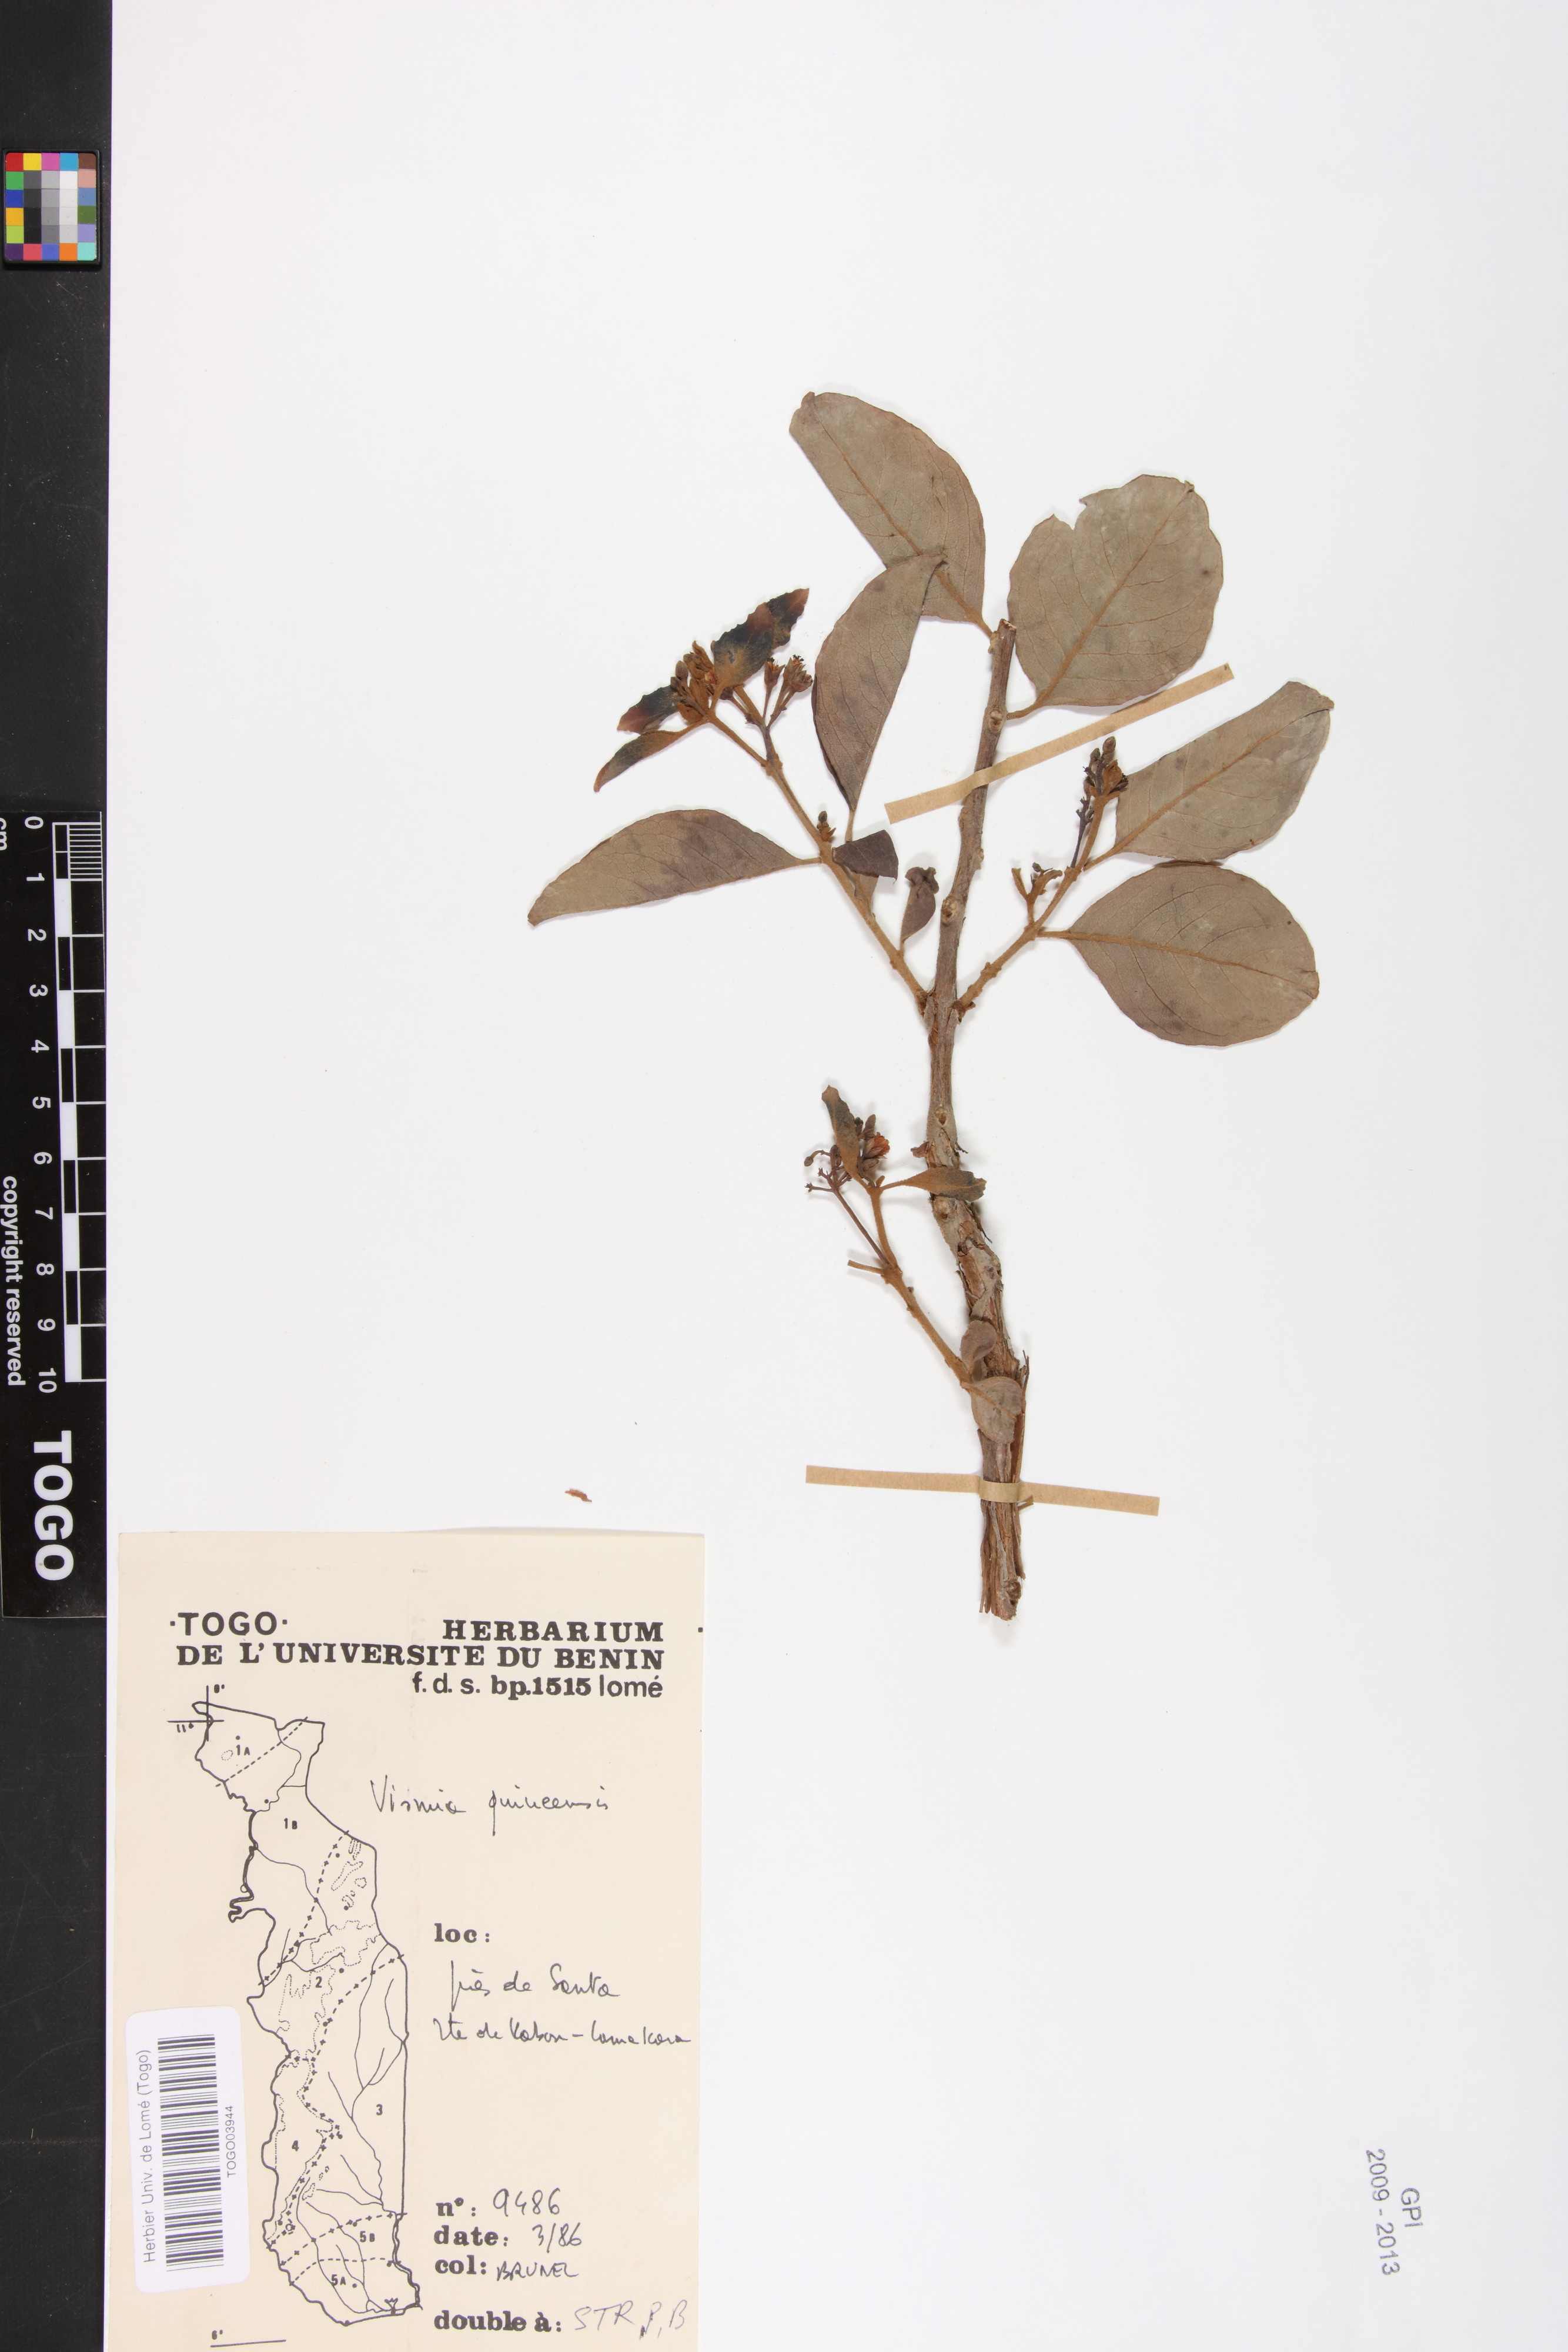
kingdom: Plantae
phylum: Tracheophyta
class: Magnoliopsida
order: Malpighiales
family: Hypericaceae
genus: Psorospermum
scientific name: Psorospermum guineense
